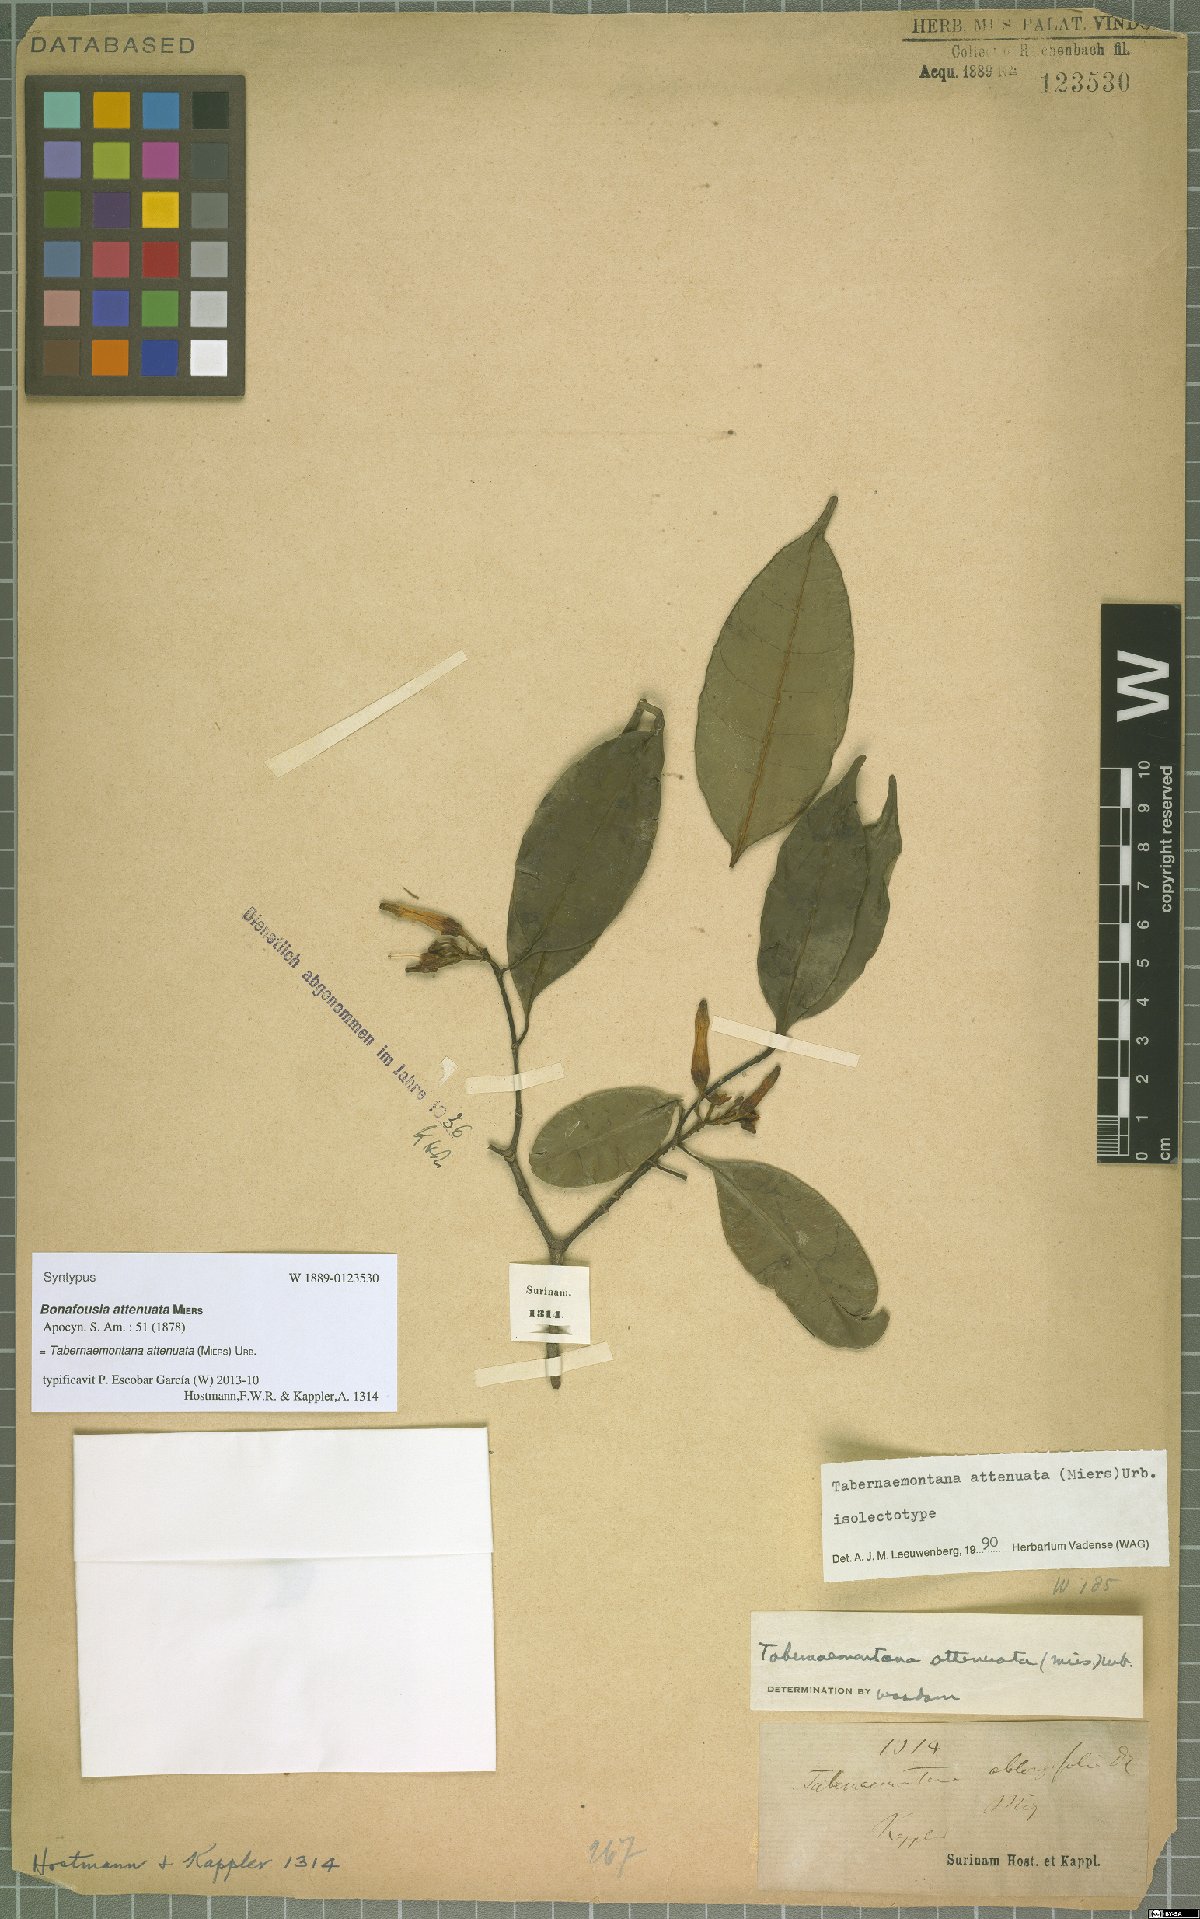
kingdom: Plantae
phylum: Tracheophyta
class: Magnoliopsida
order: Gentianales
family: Apocynaceae
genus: Tabernaemontana
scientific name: Tabernaemontana attenuata
